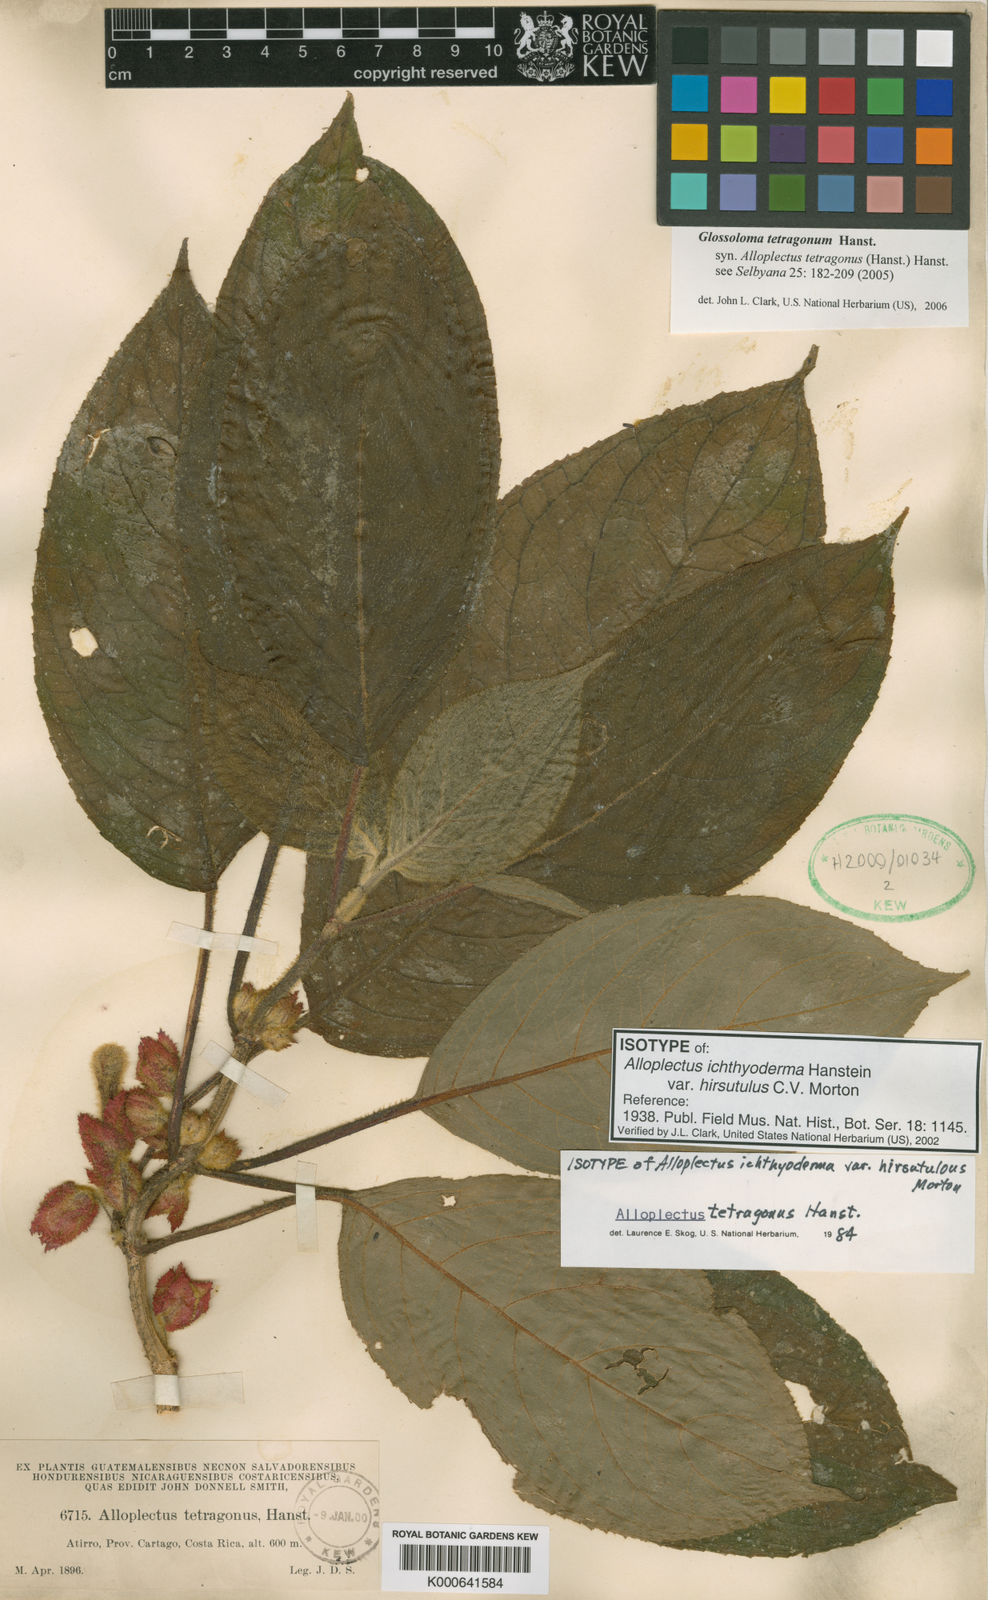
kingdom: Plantae
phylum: Tracheophyta
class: Magnoliopsida
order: Lamiales
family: Gesneriaceae
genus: Glossoloma
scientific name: Glossoloma tetragonum
